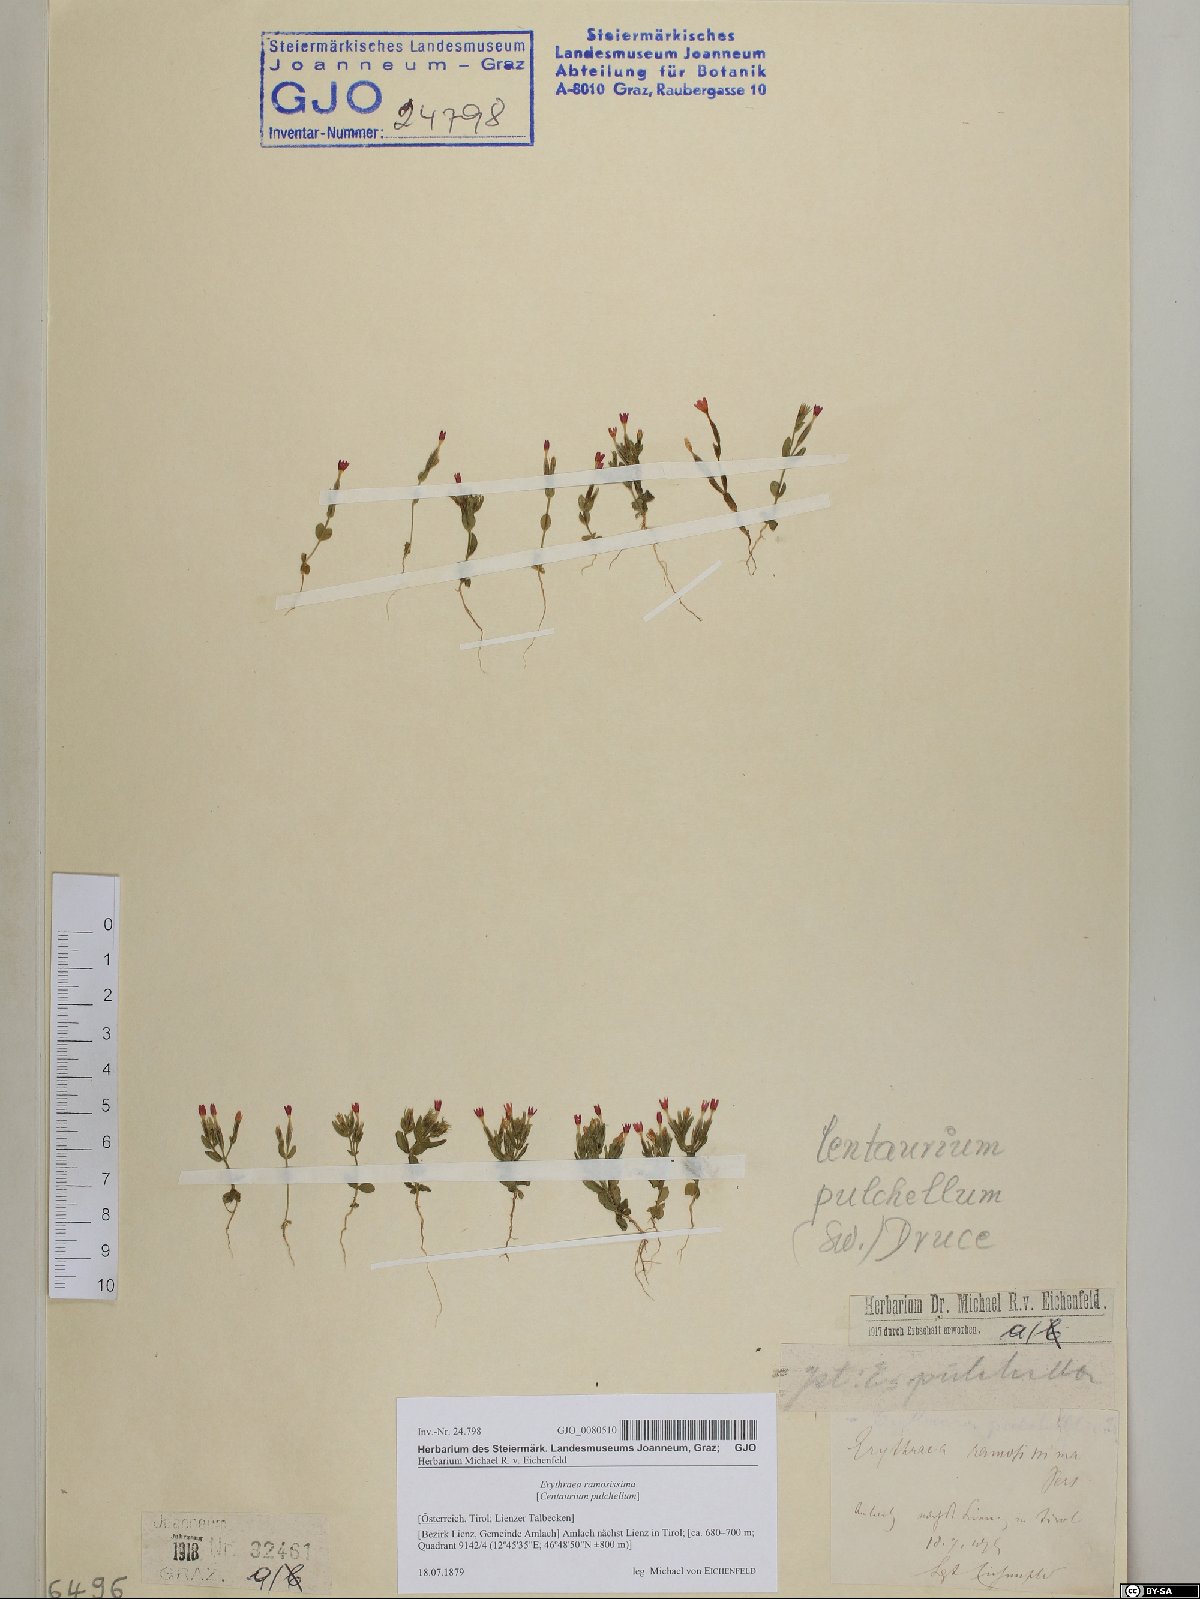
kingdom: Plantae
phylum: Tracheophyta
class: Magnoliopsida
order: Gentianales
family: Gentianaceae
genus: Centaurium
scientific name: Centaurium pulchellum
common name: Lesser centaury
